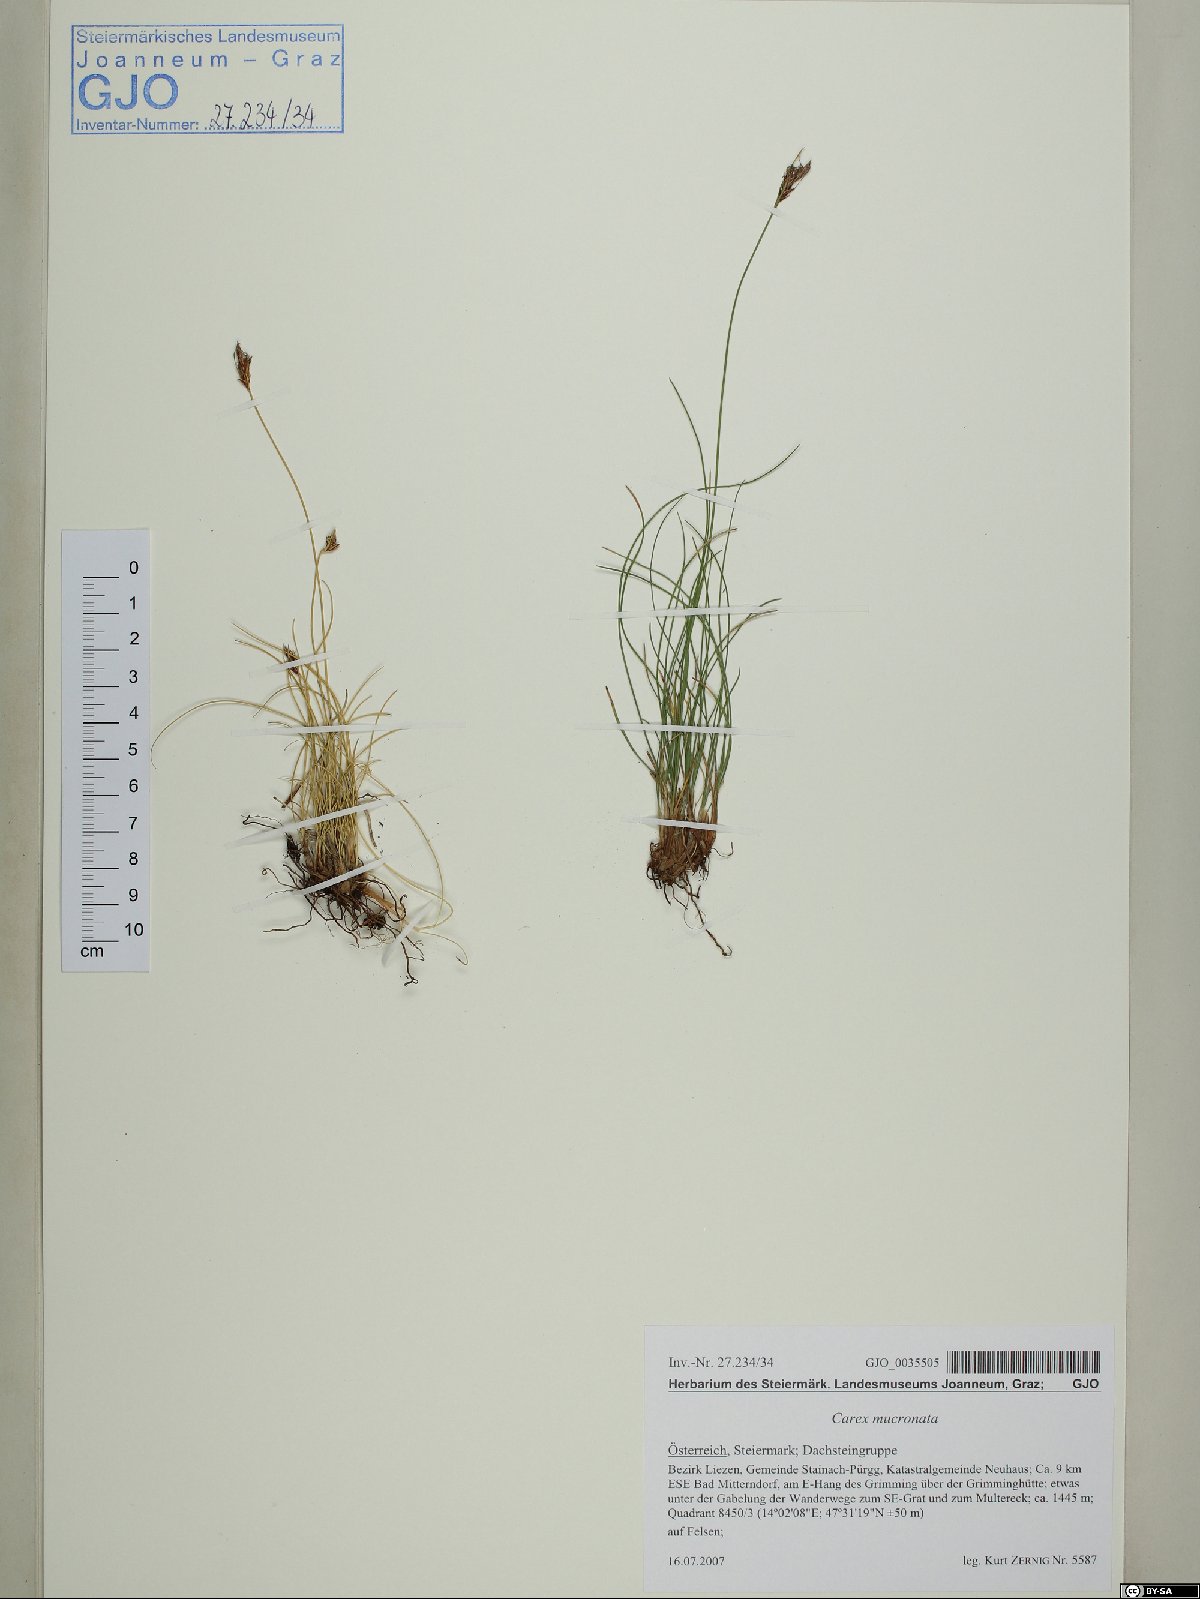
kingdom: Plantae
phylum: Tracheophyta
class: Liliopsida
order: Poales
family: Cyperaceae
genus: Carex
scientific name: Carex mucronata
